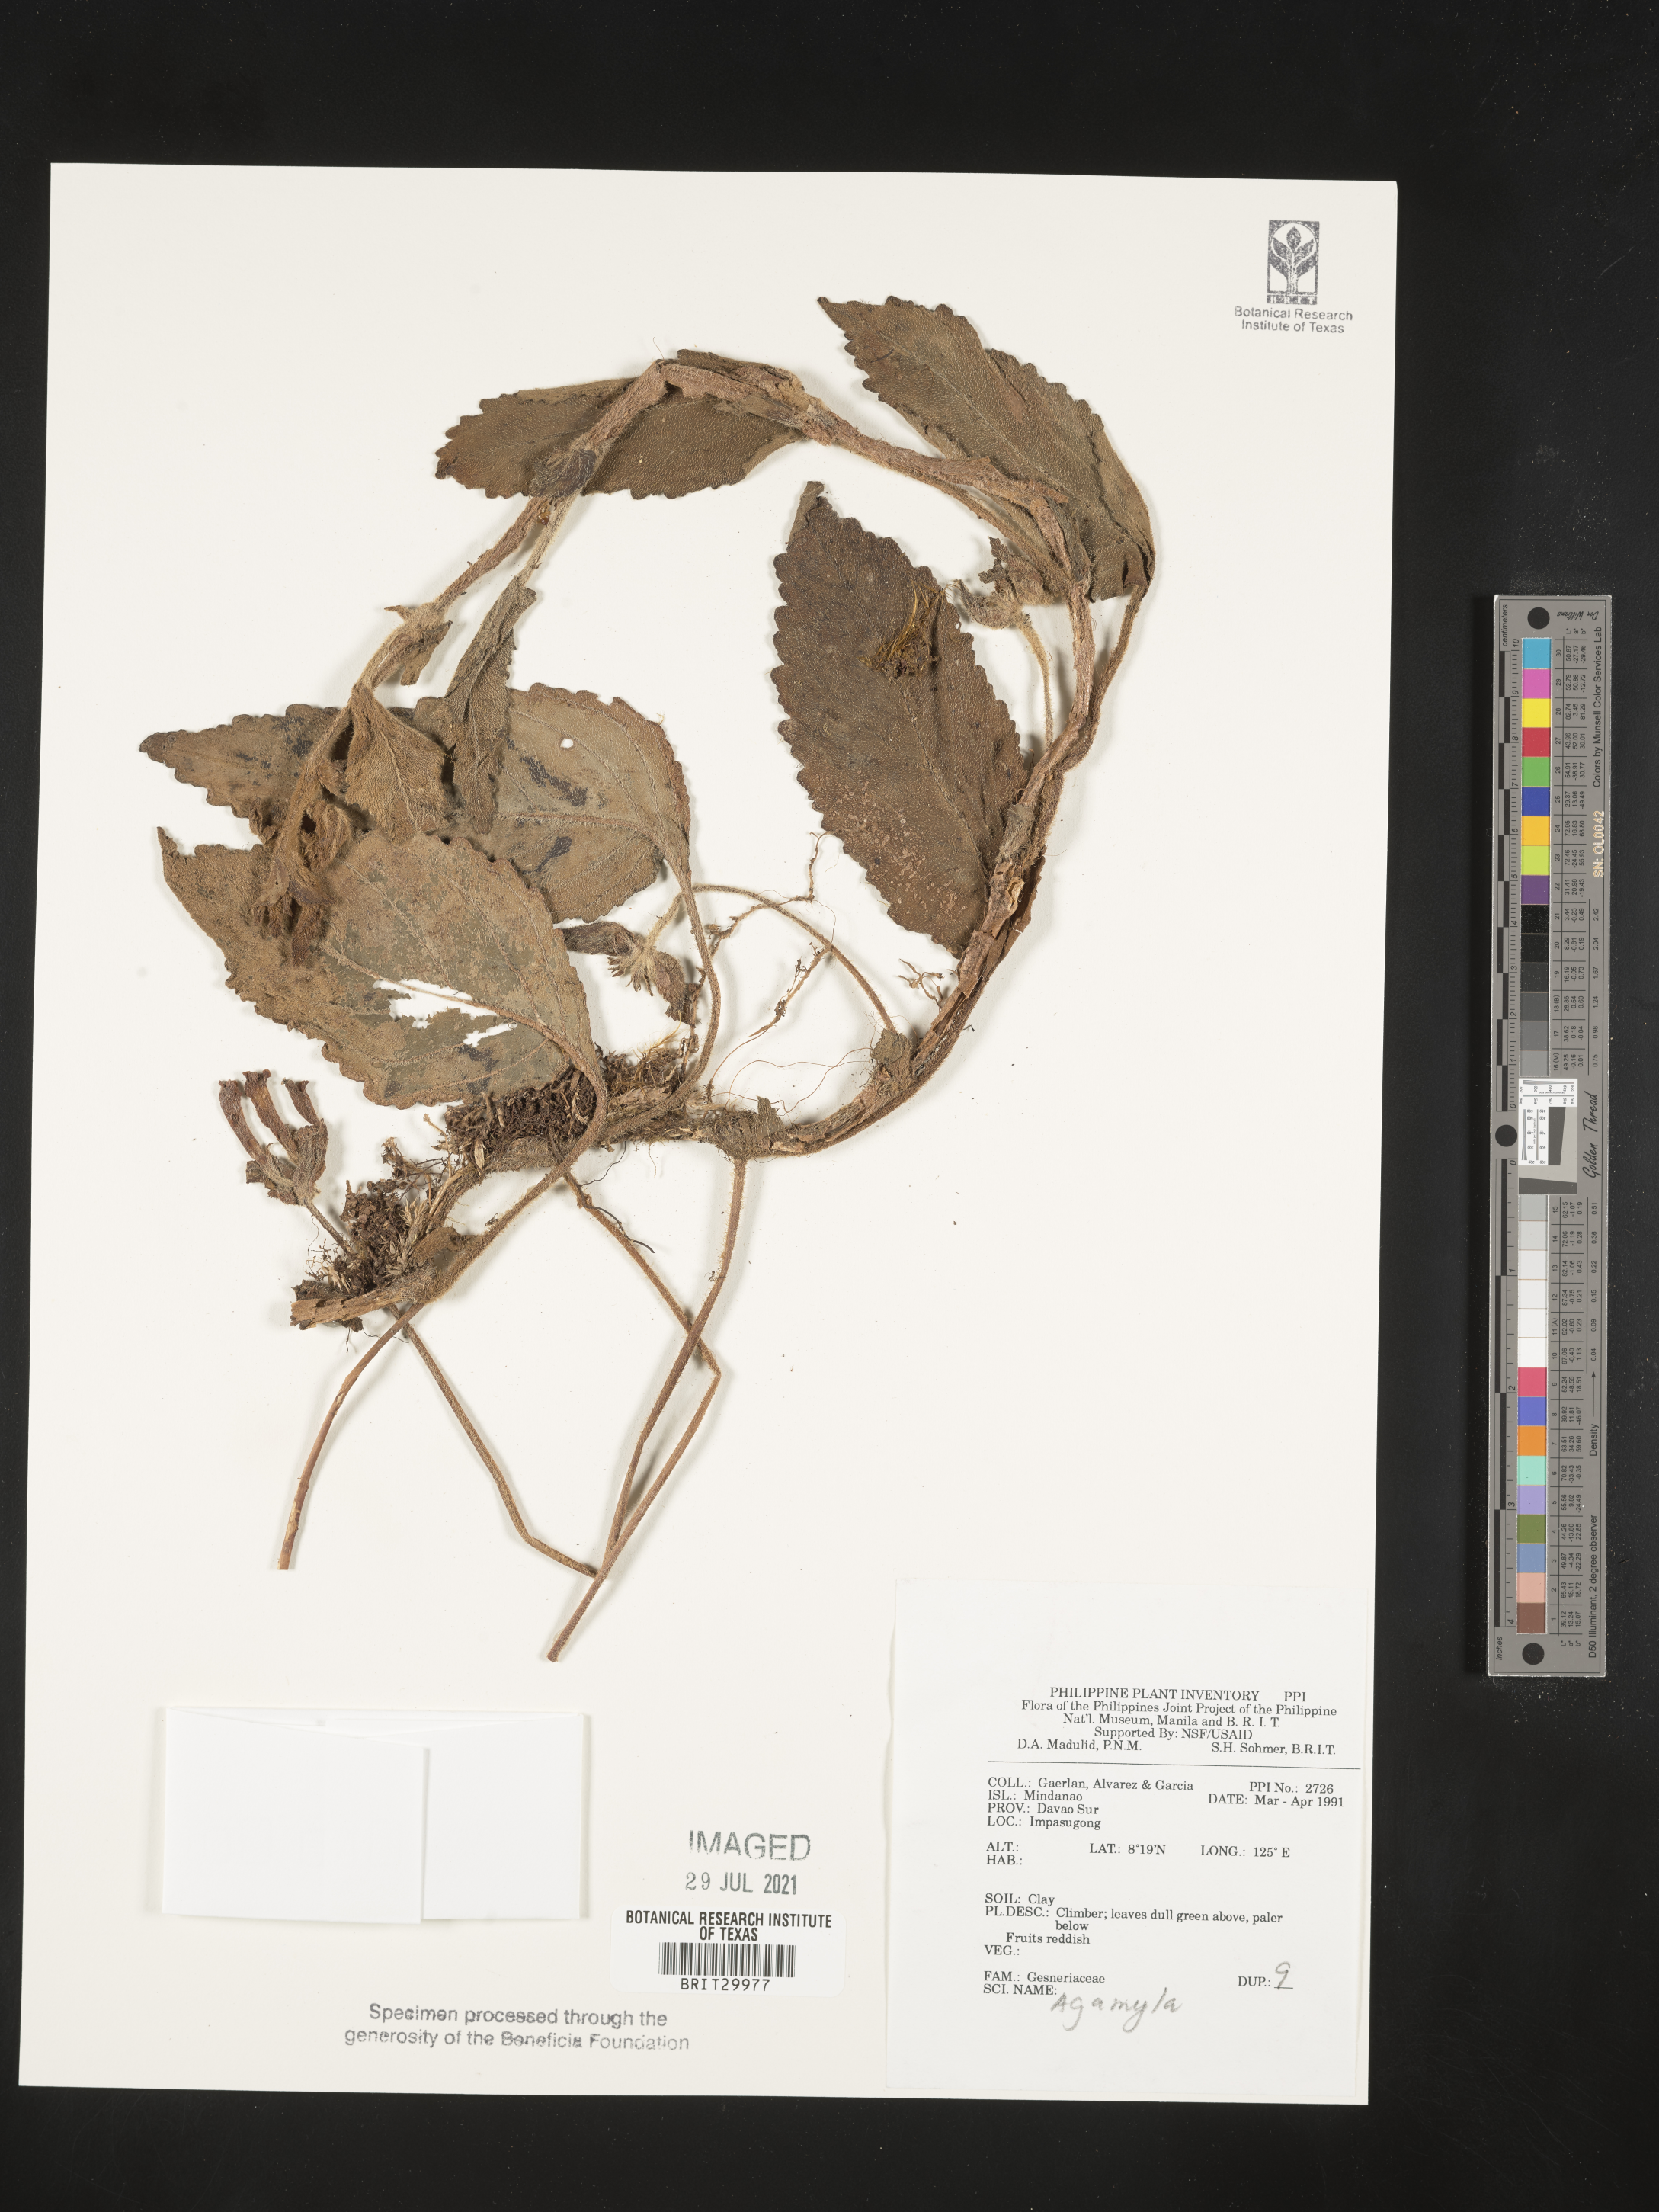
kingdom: Plantae
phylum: Tracheophyta
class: Magnoliopsida
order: Lamiales
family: Gesneriaceae
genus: Agalmyla
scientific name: Agalmyla
